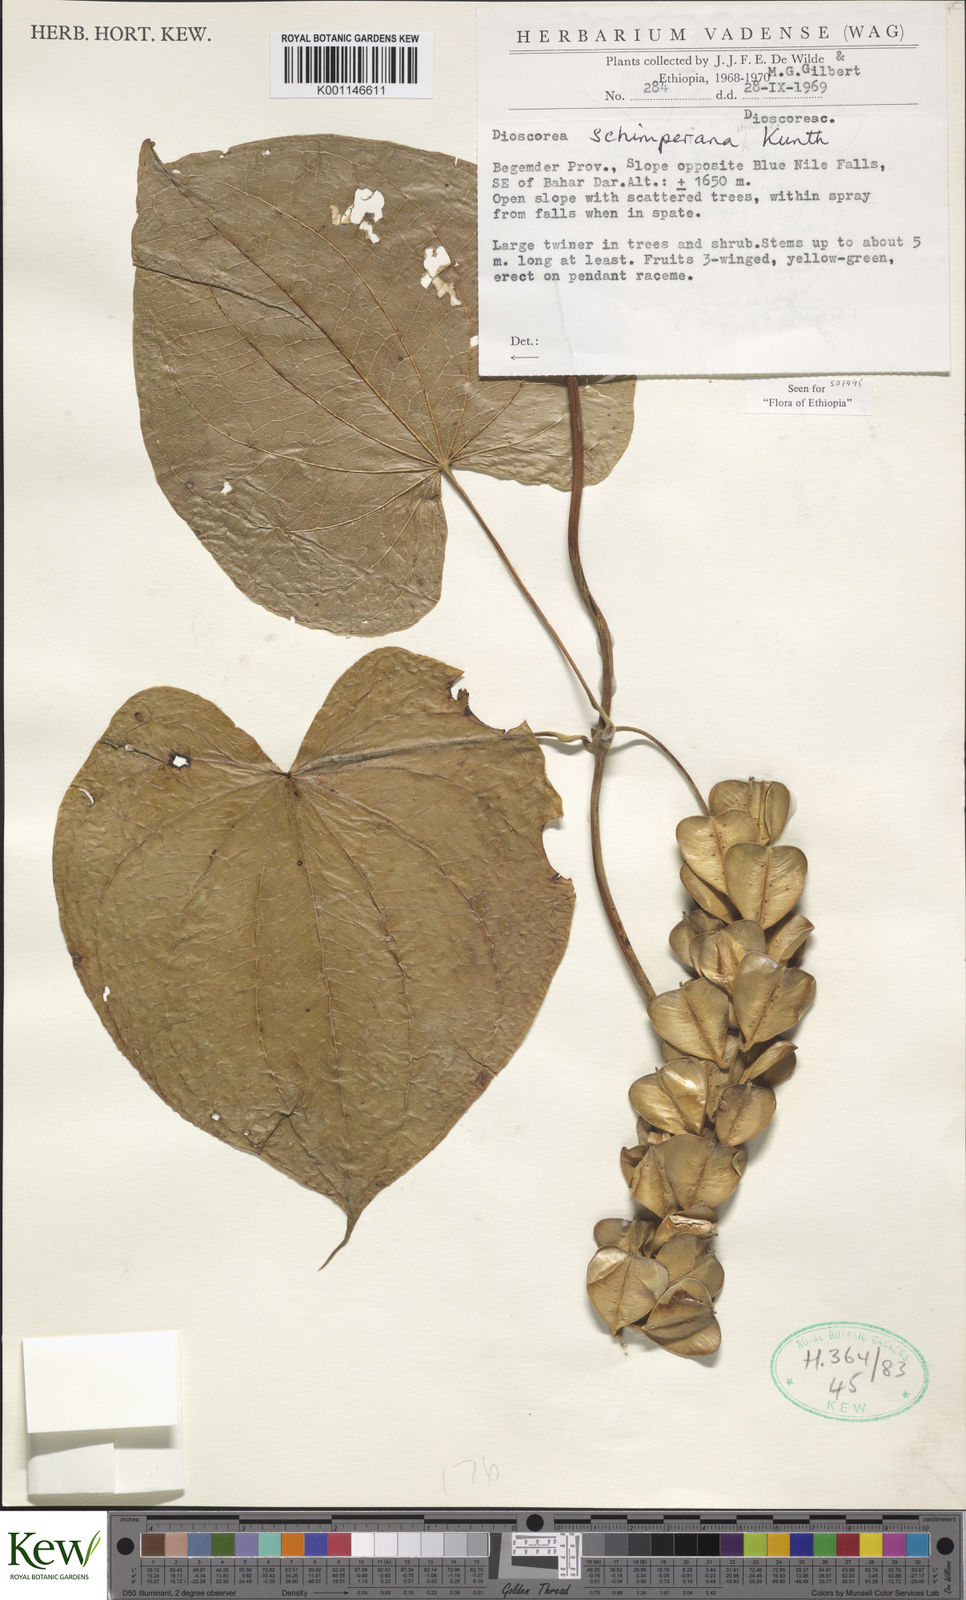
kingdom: Plantae
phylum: Tracheophyta
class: Liliopsida
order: Dioscoreales
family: Dioscoreaceae
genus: Dioscorea
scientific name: Dioscorea schimperiana
